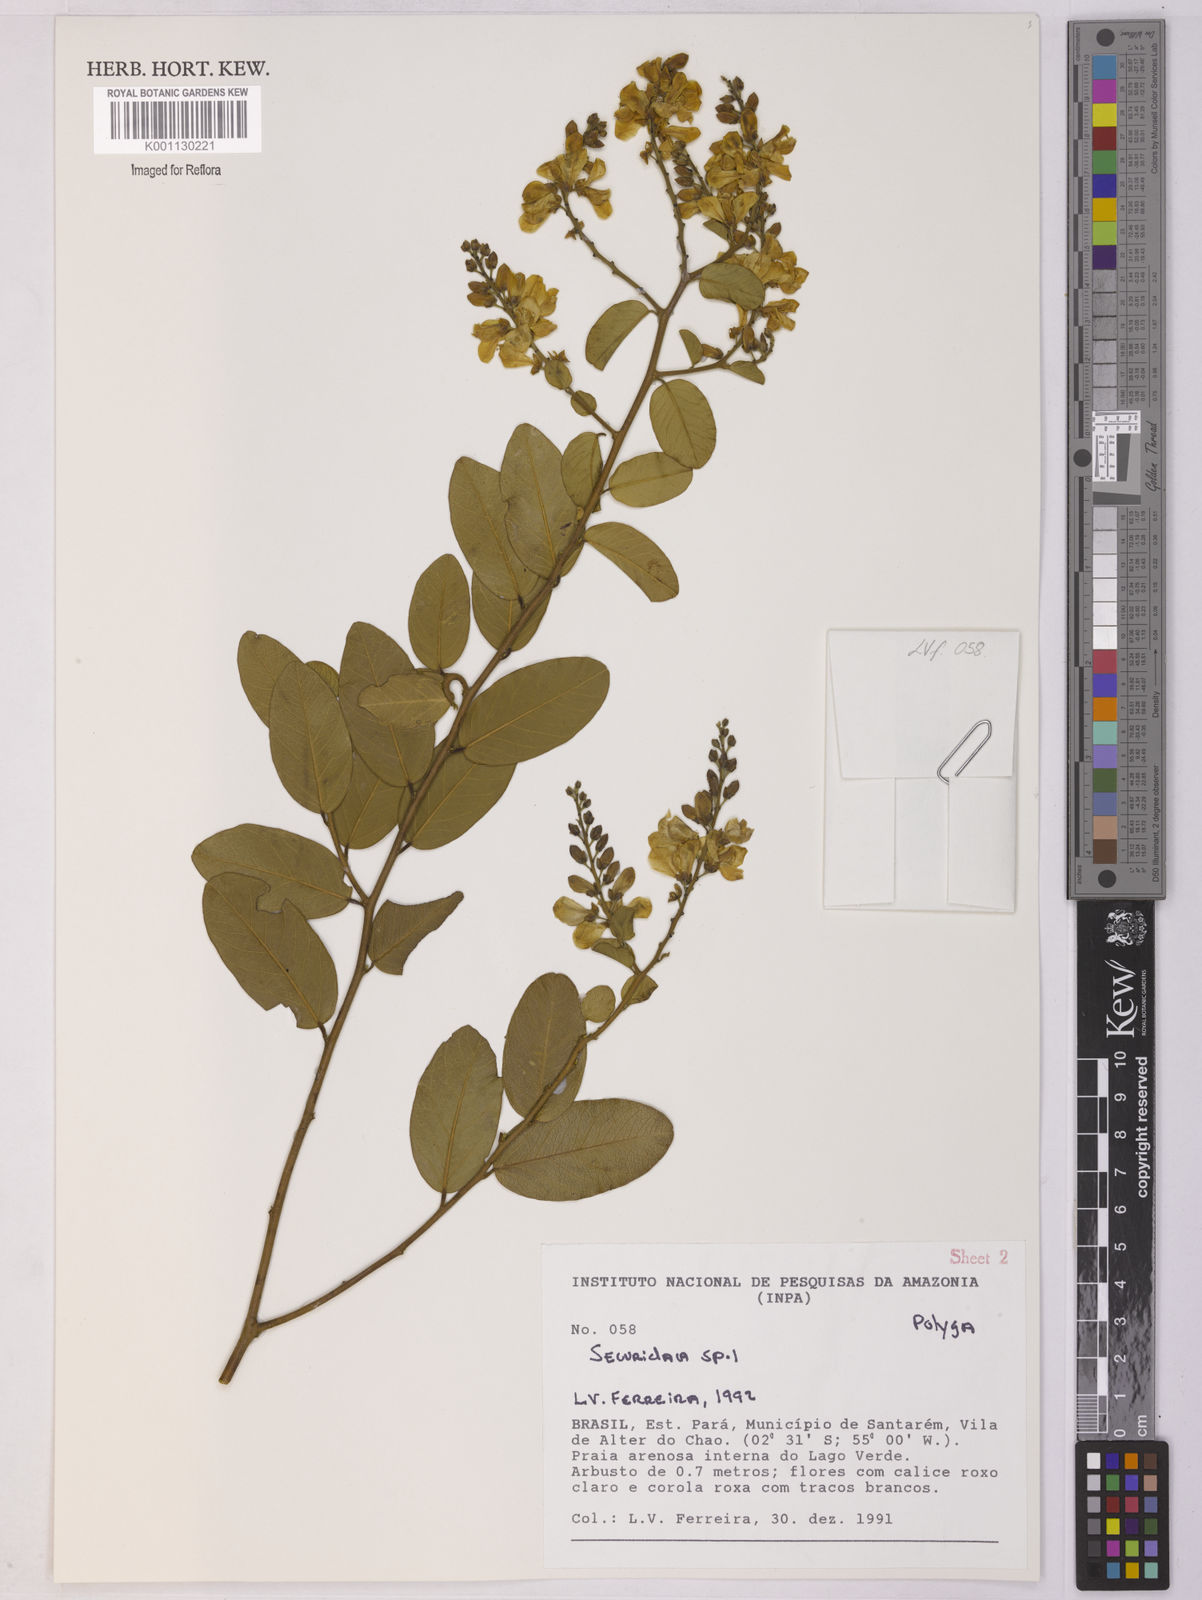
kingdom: Plantae
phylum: Tracheophyta
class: Magnoliopsida
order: Fabales
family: Polygalaceae
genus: Securidaca
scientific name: Securidaca
